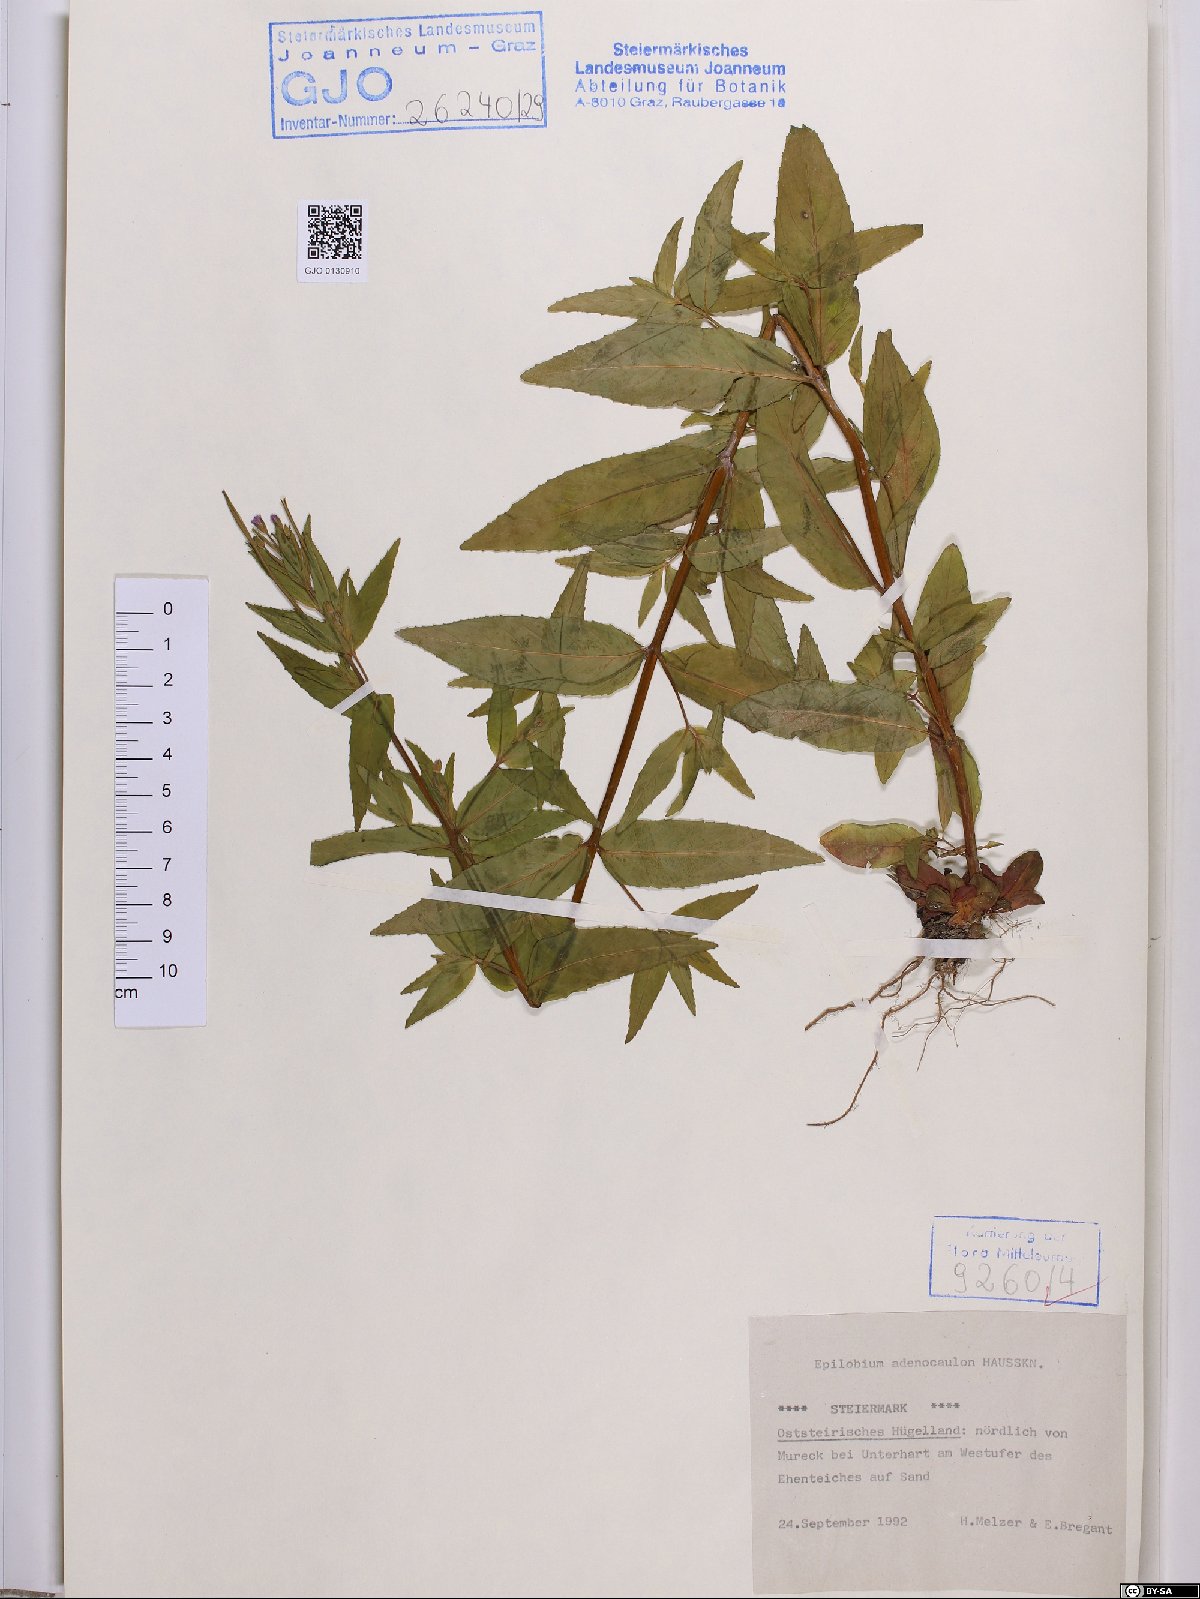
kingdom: Plantae
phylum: Tracheophyta
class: Magnoliopsida
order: Myrtales
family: Onagraceae
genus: Epilobium
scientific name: Epilobium ciliatum
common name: American willowherb
